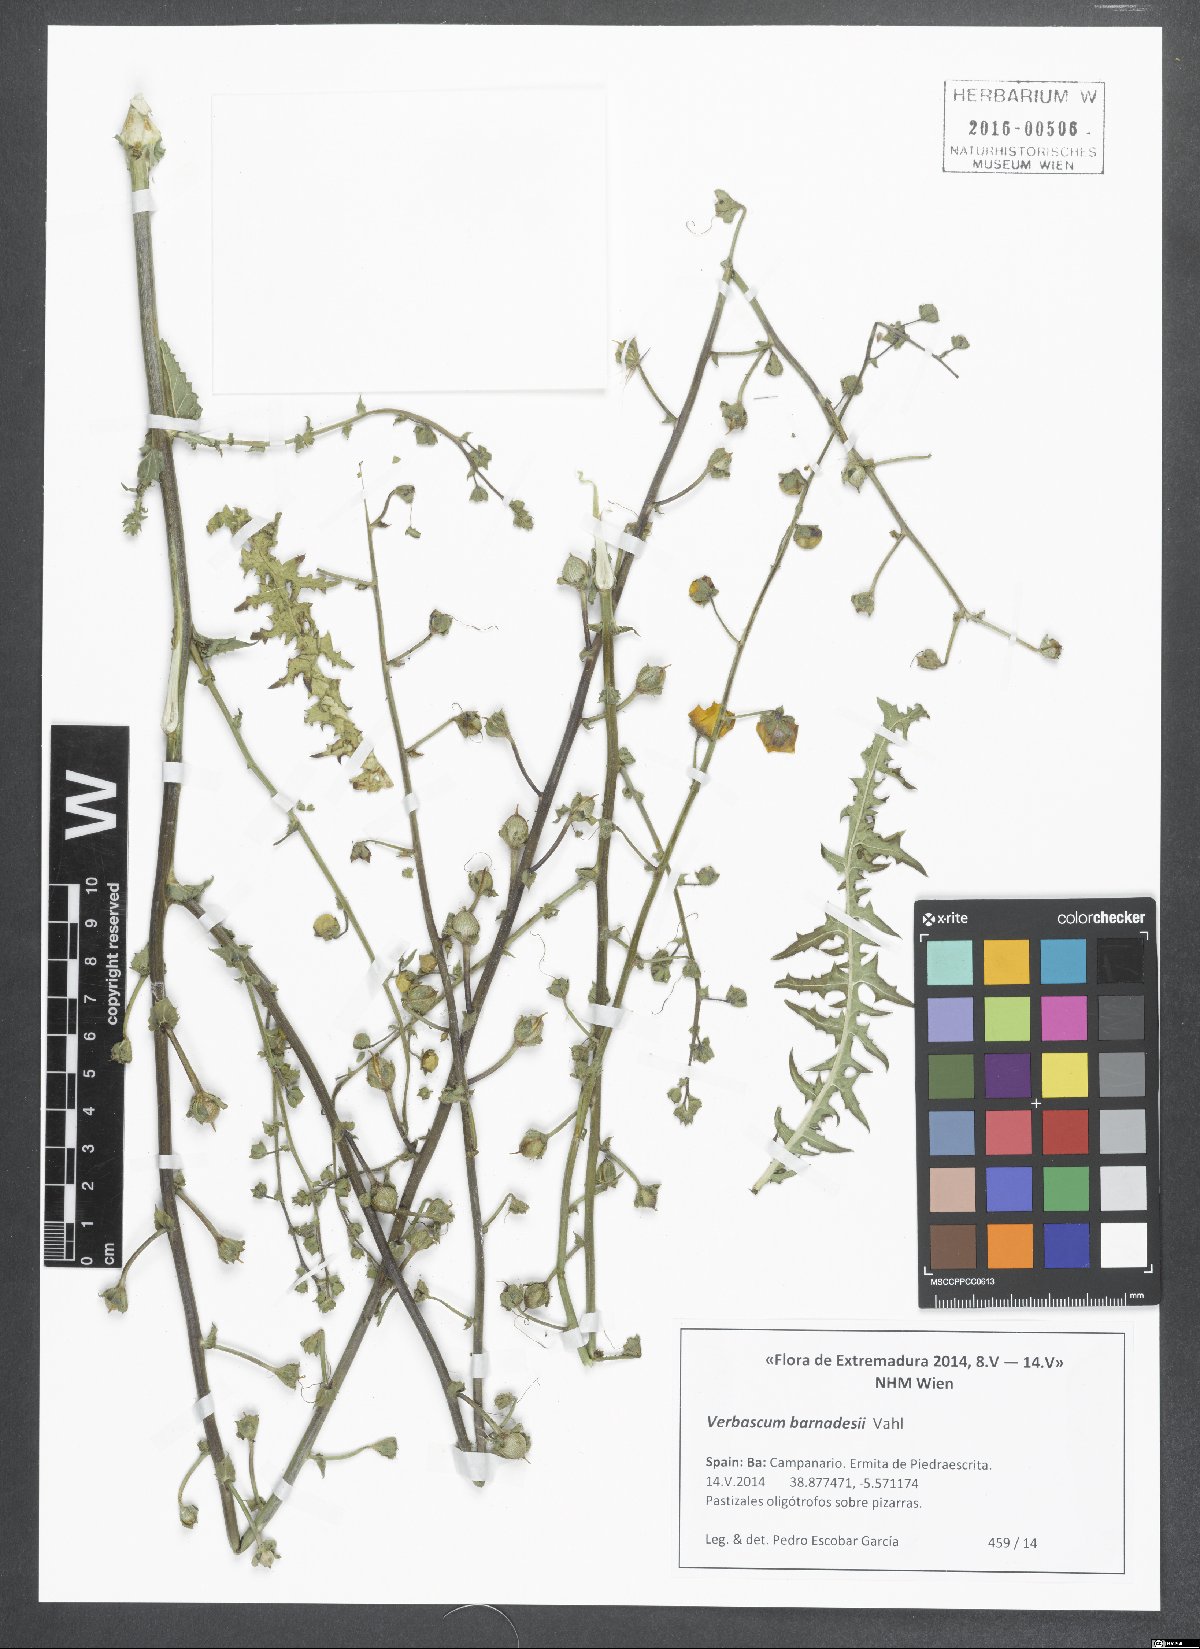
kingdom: Plantae
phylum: Tracheophyta
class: Magnoliopsida
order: Lamiales
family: Scrophulariaceae
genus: Verbascum
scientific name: Verbascum barnadesii
